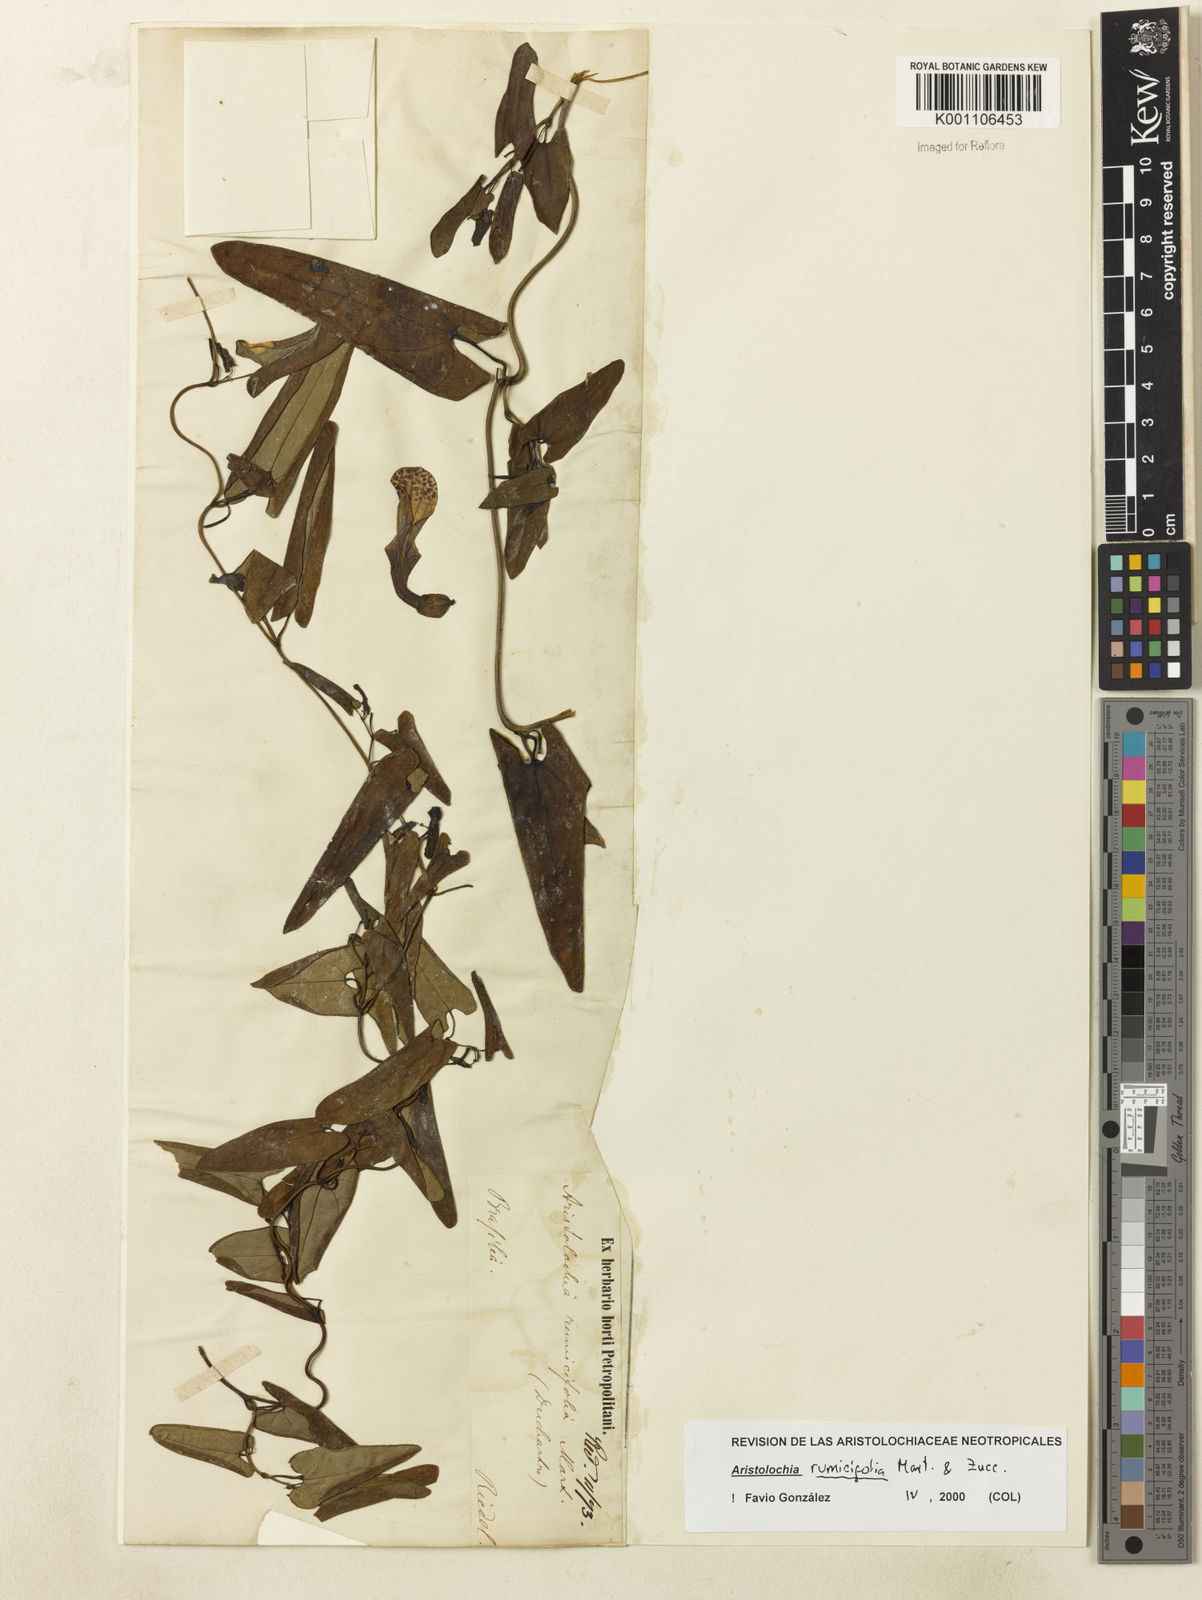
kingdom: Plantae
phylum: Tracheophyta
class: Magnoliopsida
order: Piperales
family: Aristolochiaceae
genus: Aristolochia
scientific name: Aristolochia rumicifolia
